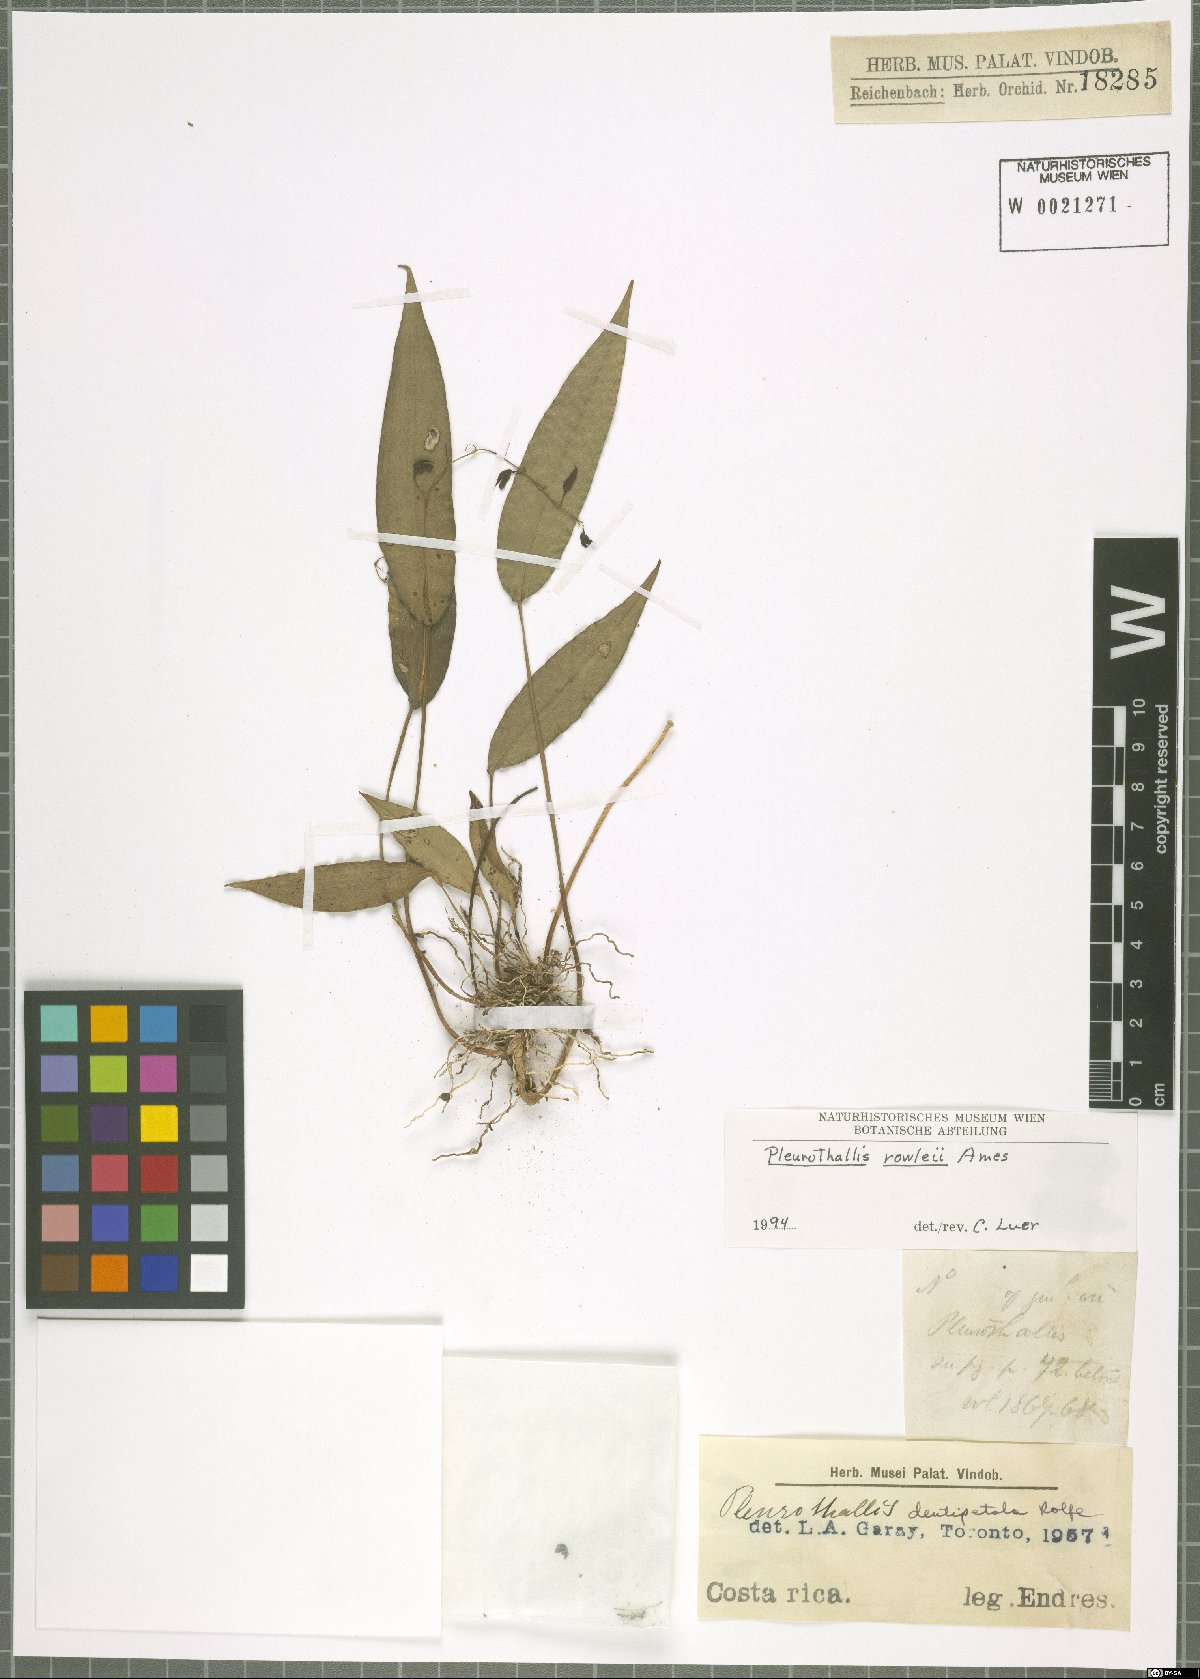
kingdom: Plantae
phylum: Tracheophyta
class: Liliopsida
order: Asparagales
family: Orchidaceae
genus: Pleurothallis
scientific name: Pleurothallis rowleei
